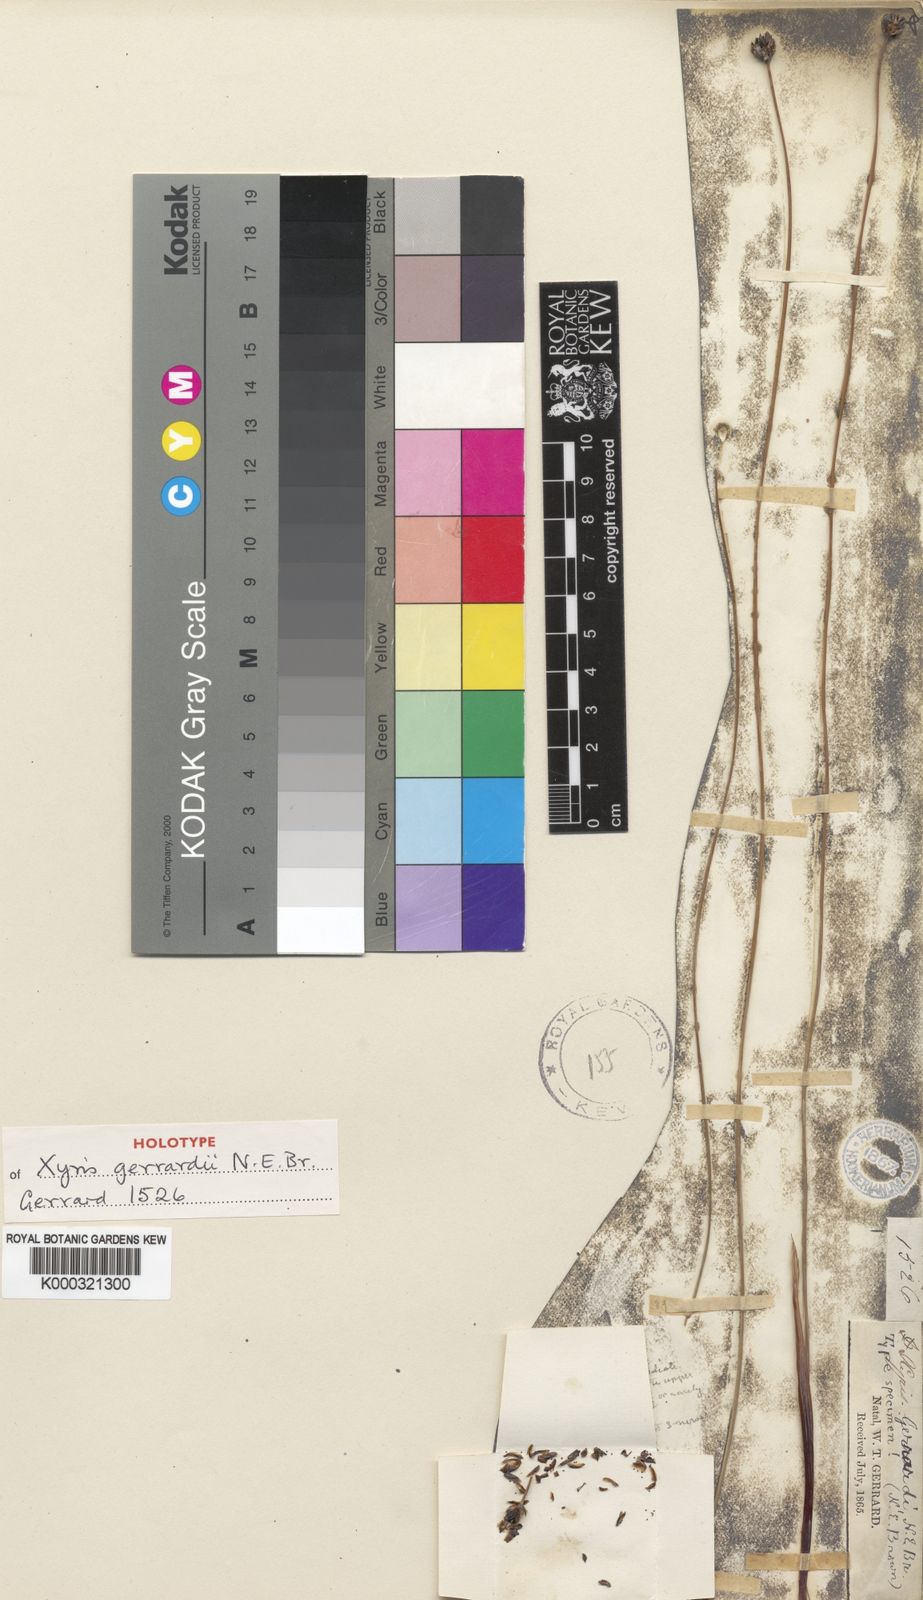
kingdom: Plantae
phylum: Tracheophyta
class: Liliopsida
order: Poales
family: Xyridaceae
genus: Xyris
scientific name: Xyris gerrardii
